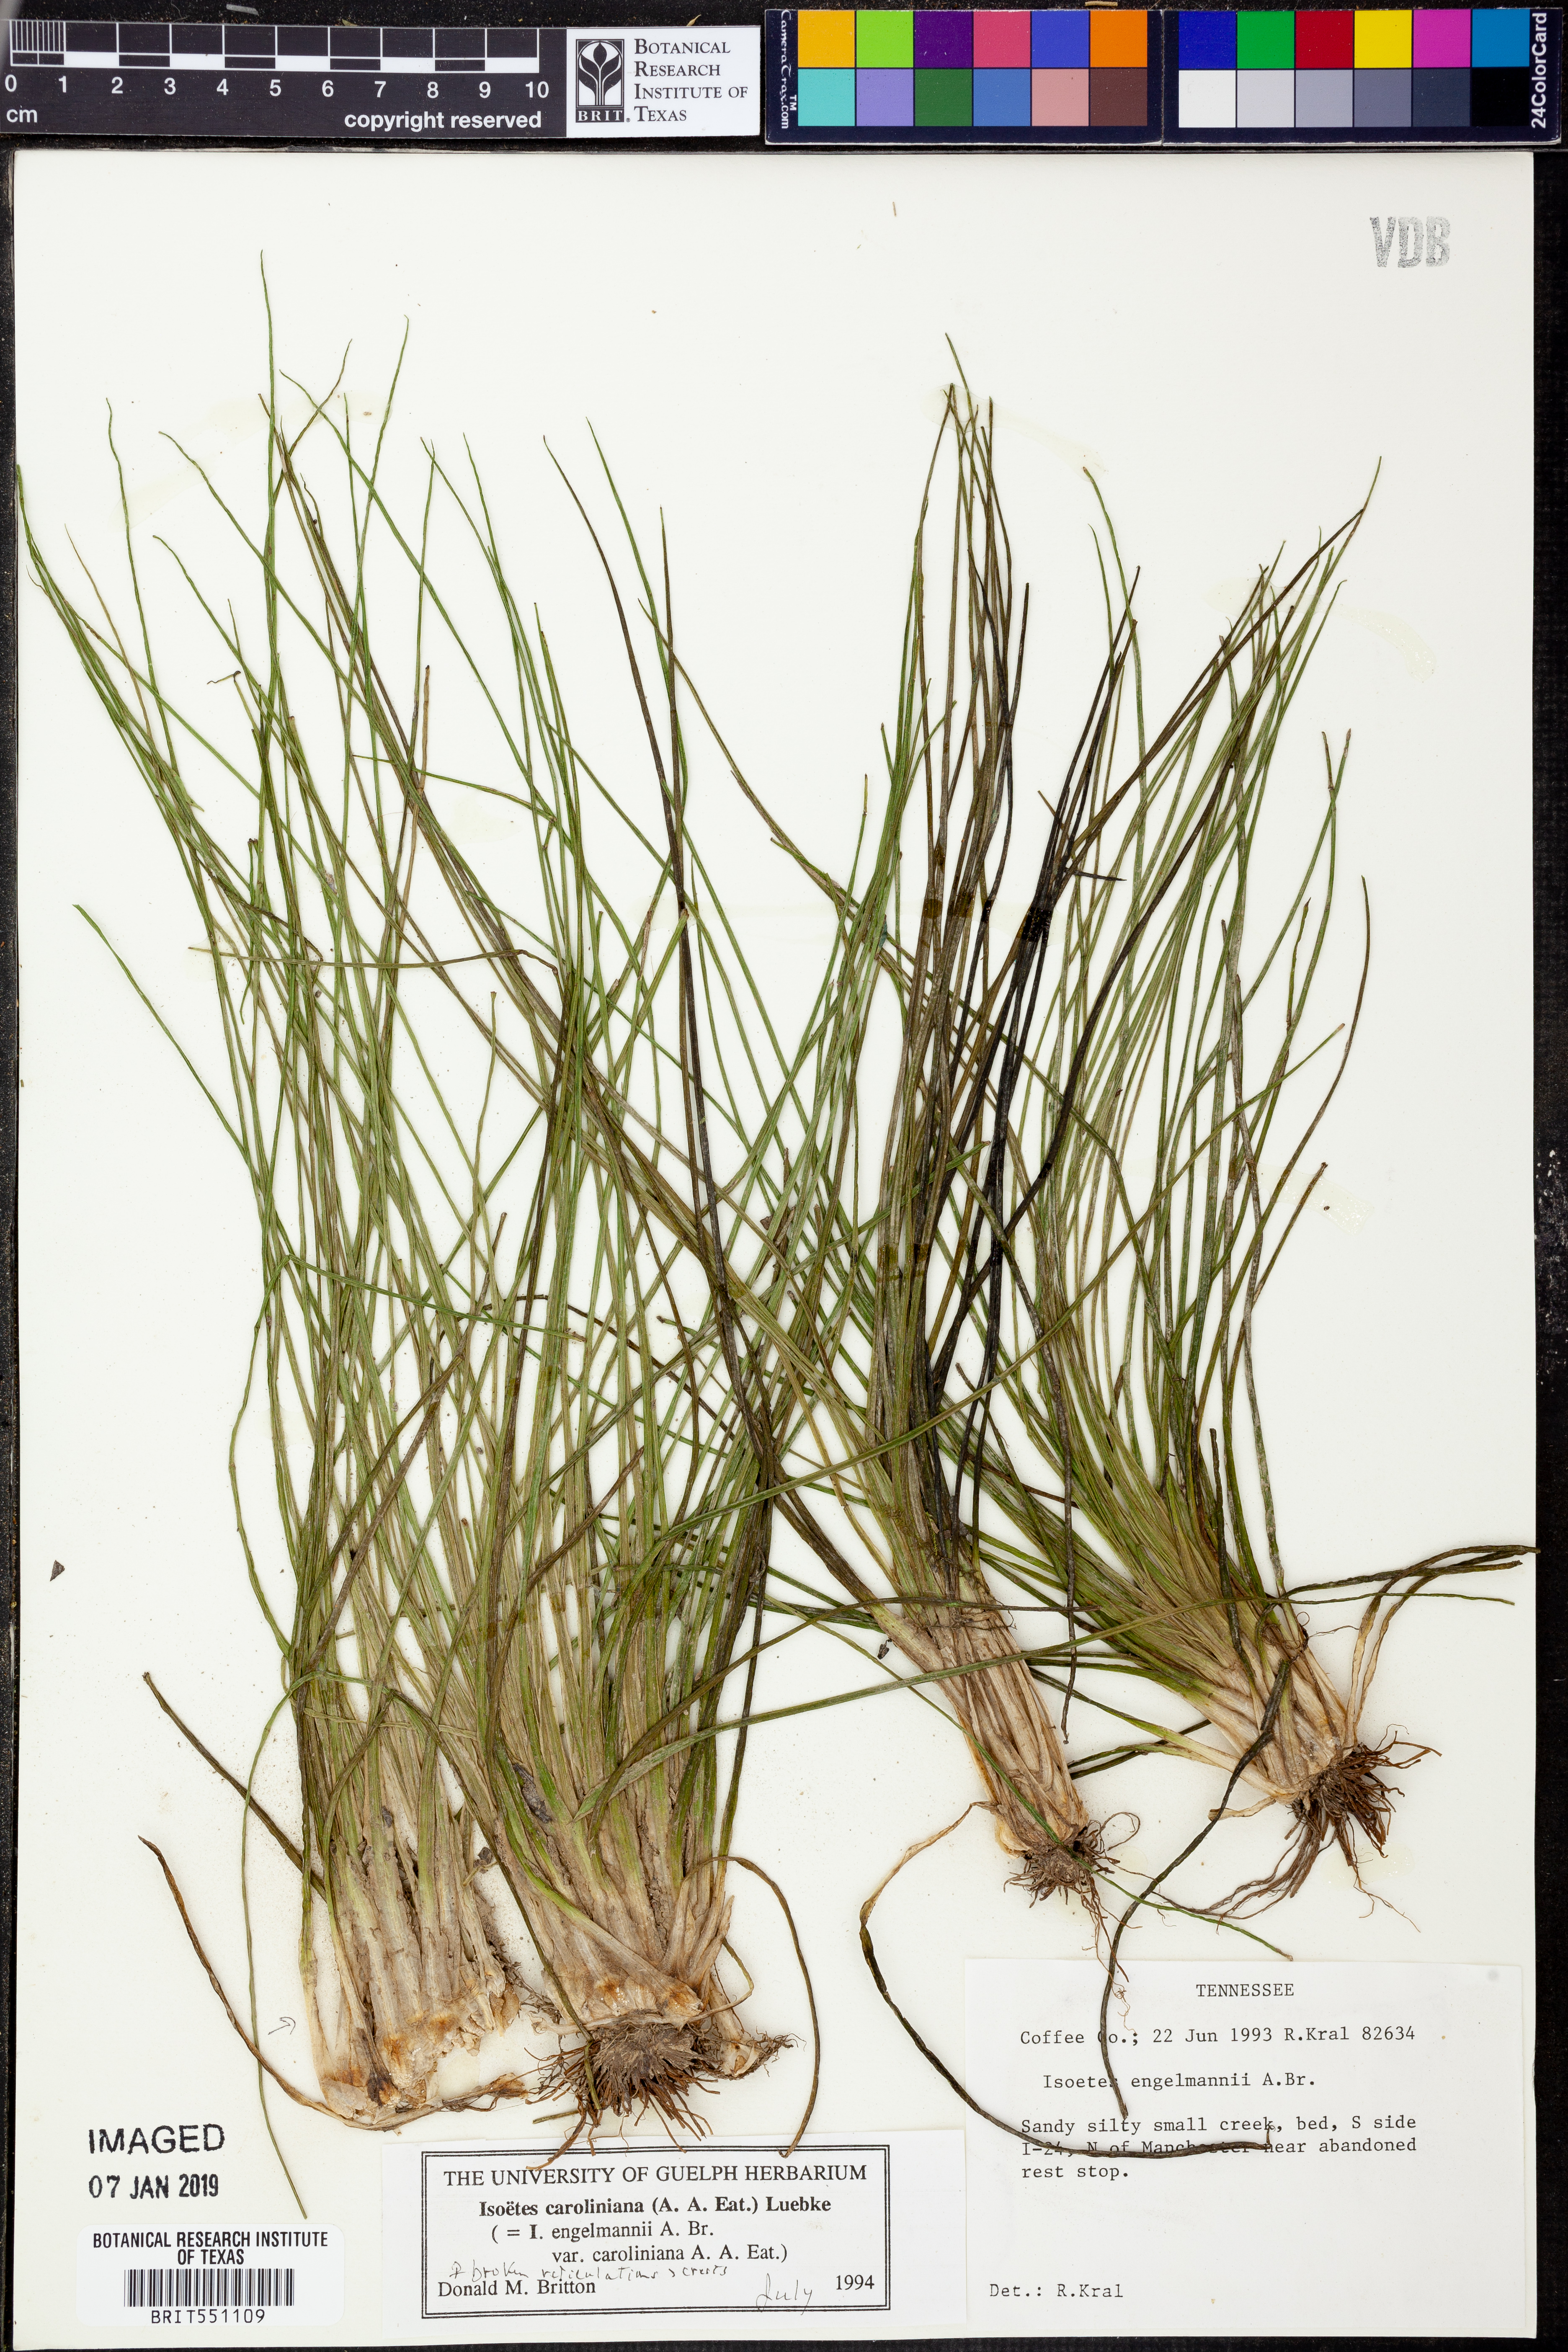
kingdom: Plantae
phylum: Tracheophyta
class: Lycopodiopsida
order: Isoetales
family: Isoetaceae
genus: Isoetes
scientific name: Isoetes caroliniana
